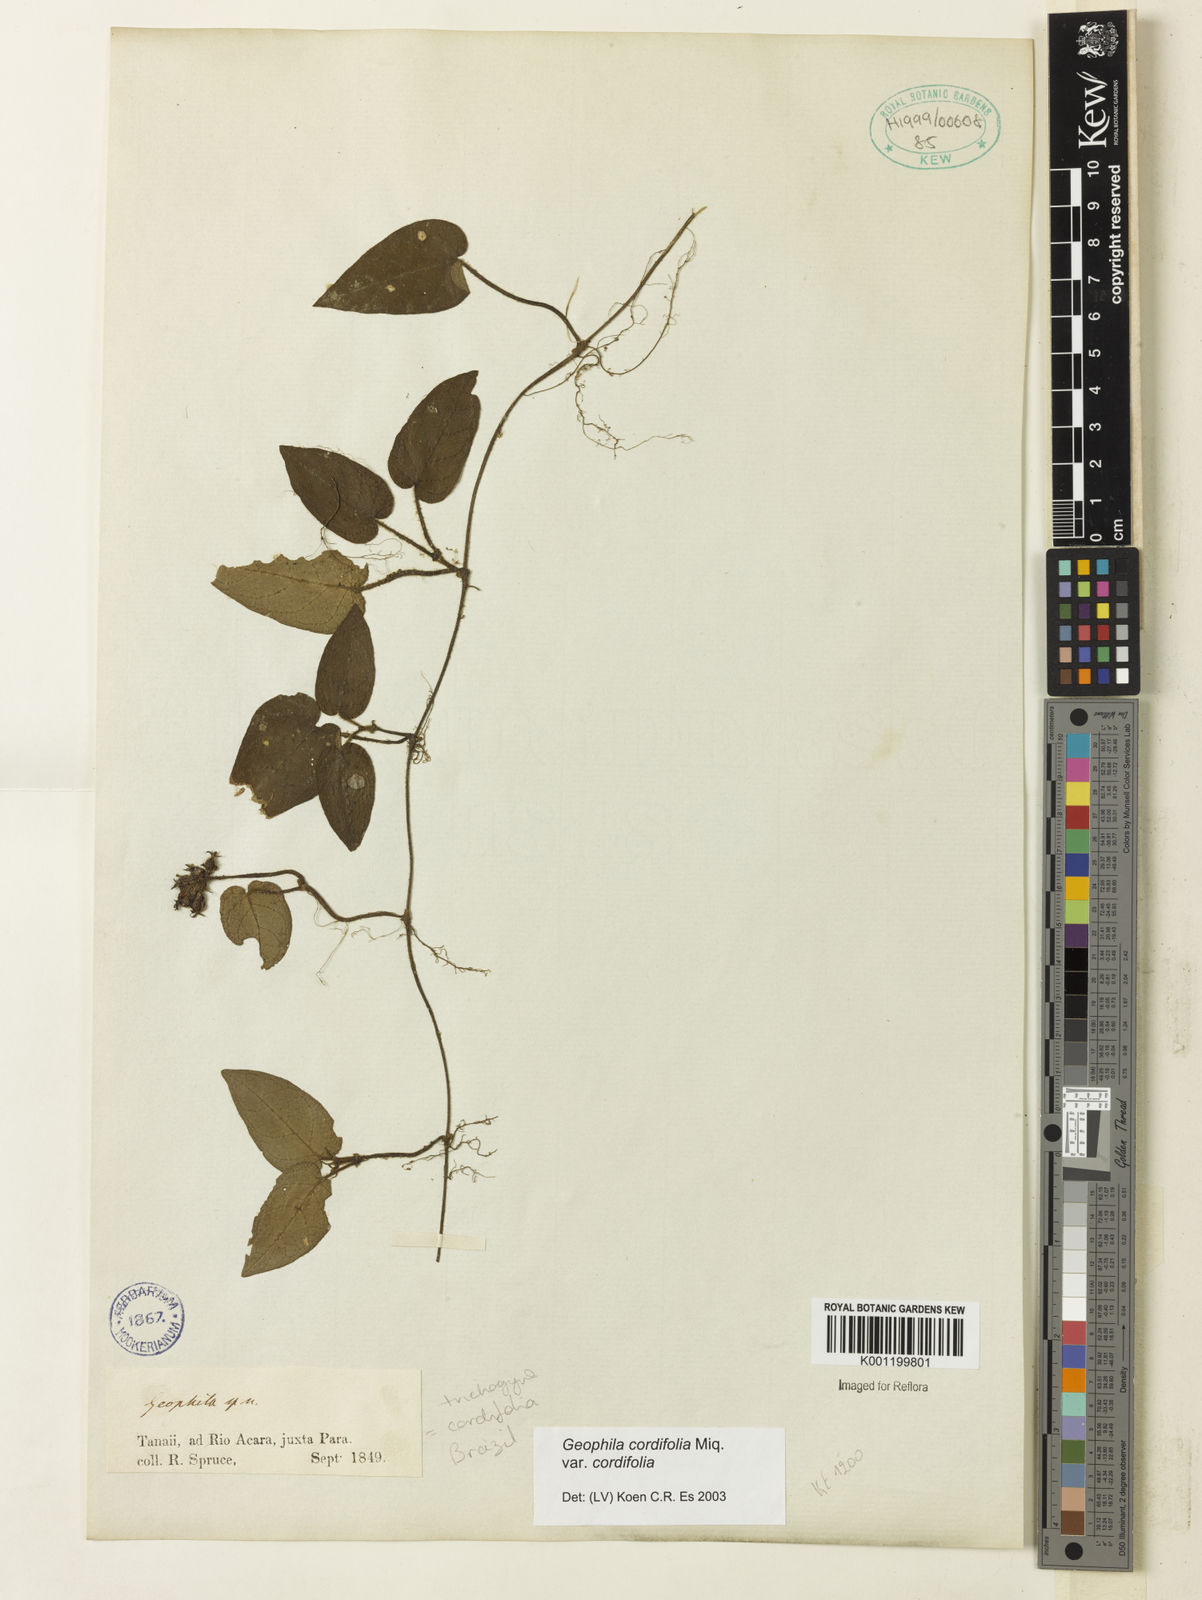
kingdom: Plantae
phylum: Tracheophyta
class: Magnoliopsida
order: Gentianales
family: Rubiaceae
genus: Geophila
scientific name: Geophila cordifolia
